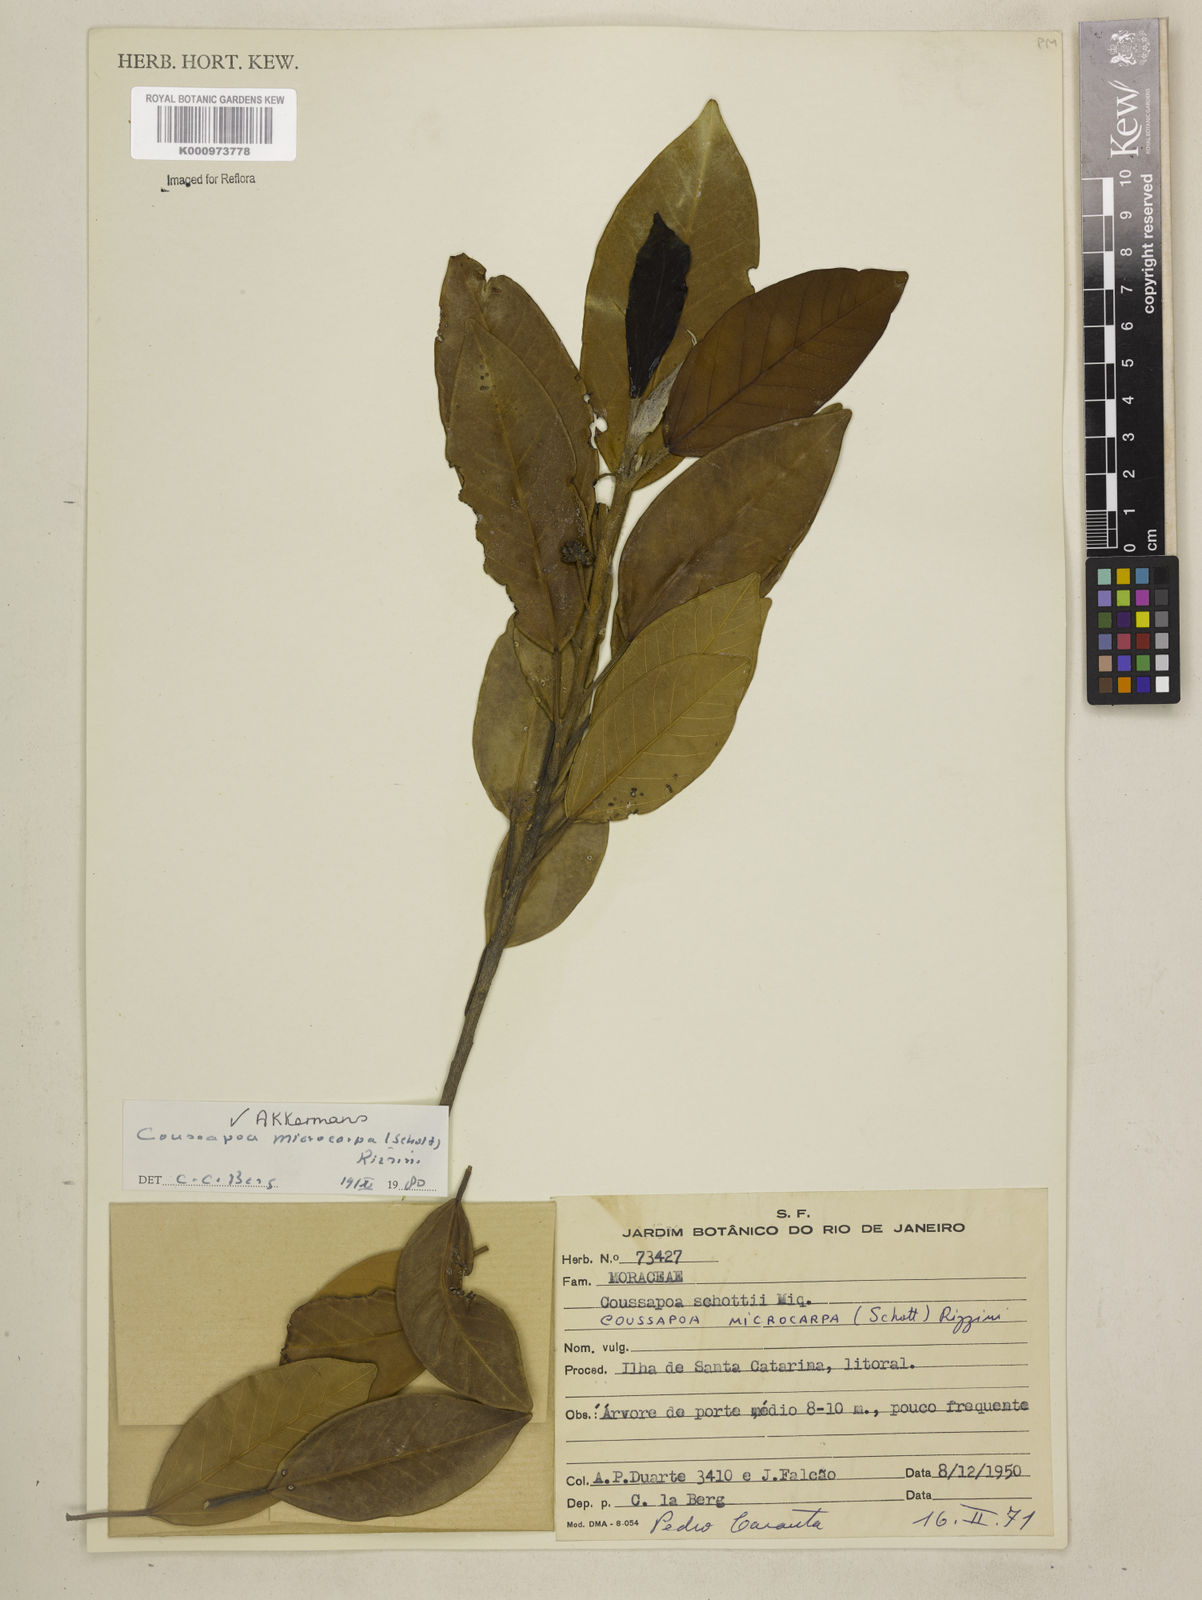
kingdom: Plantae
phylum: Tracheophyta
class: Magnoliopsida
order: Rosales
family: Urticaceae
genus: Coussapoa
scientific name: Coussapoa microcarpa
